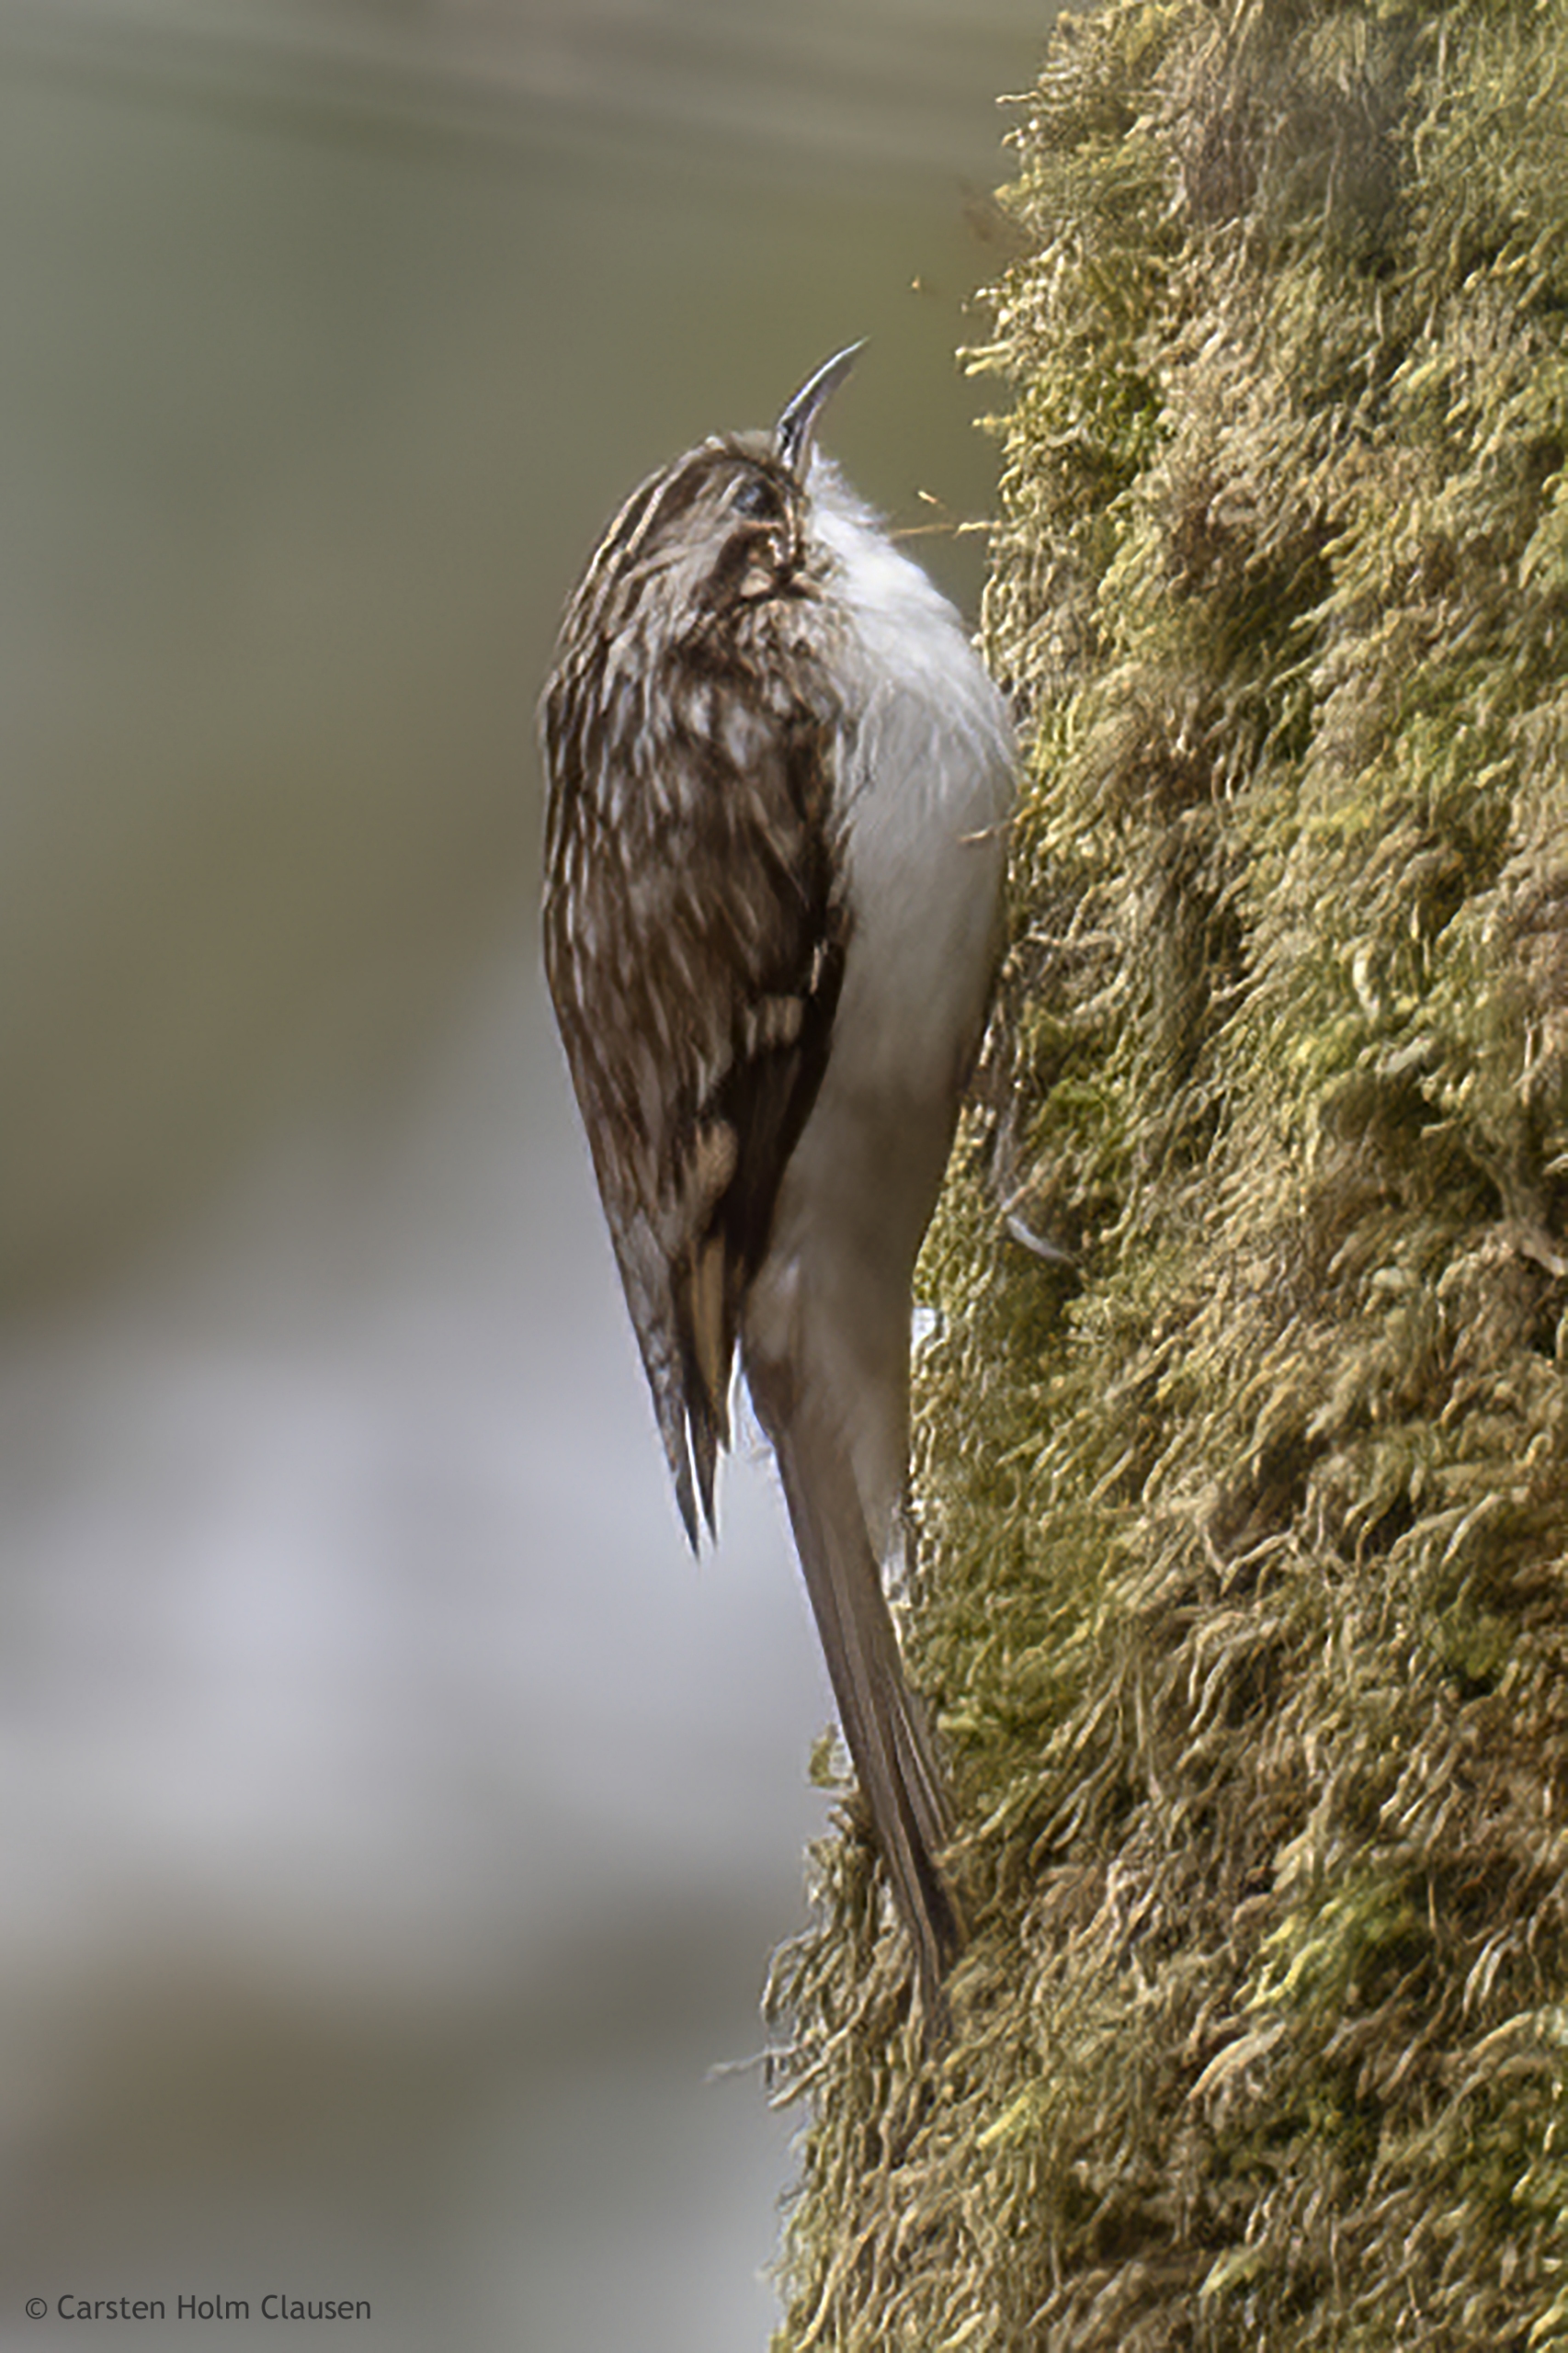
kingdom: Animalia
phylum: Chordata
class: Aves
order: Passeriformes
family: Certhiidae
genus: Certhia
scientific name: Certhia familiaris
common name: Træløber
